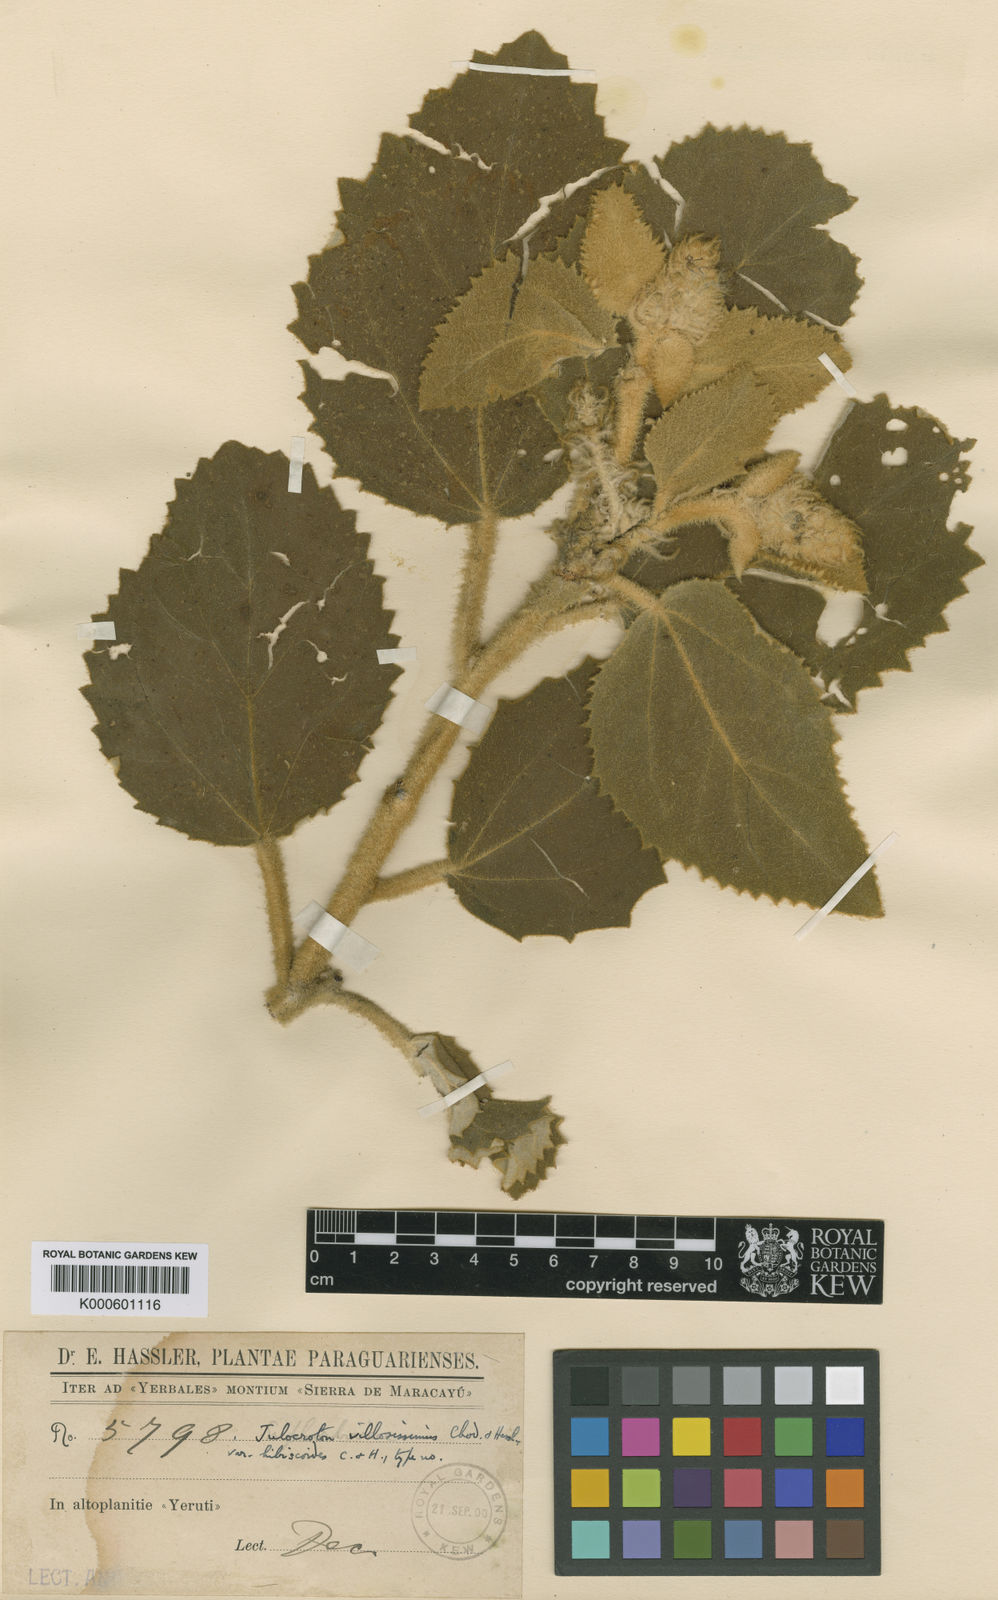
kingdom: Plantae
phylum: Tracheophyta
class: Magnoliopsida
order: Malpighiales
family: Euphorbiaceae
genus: Croton
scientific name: Croton villosissimus
